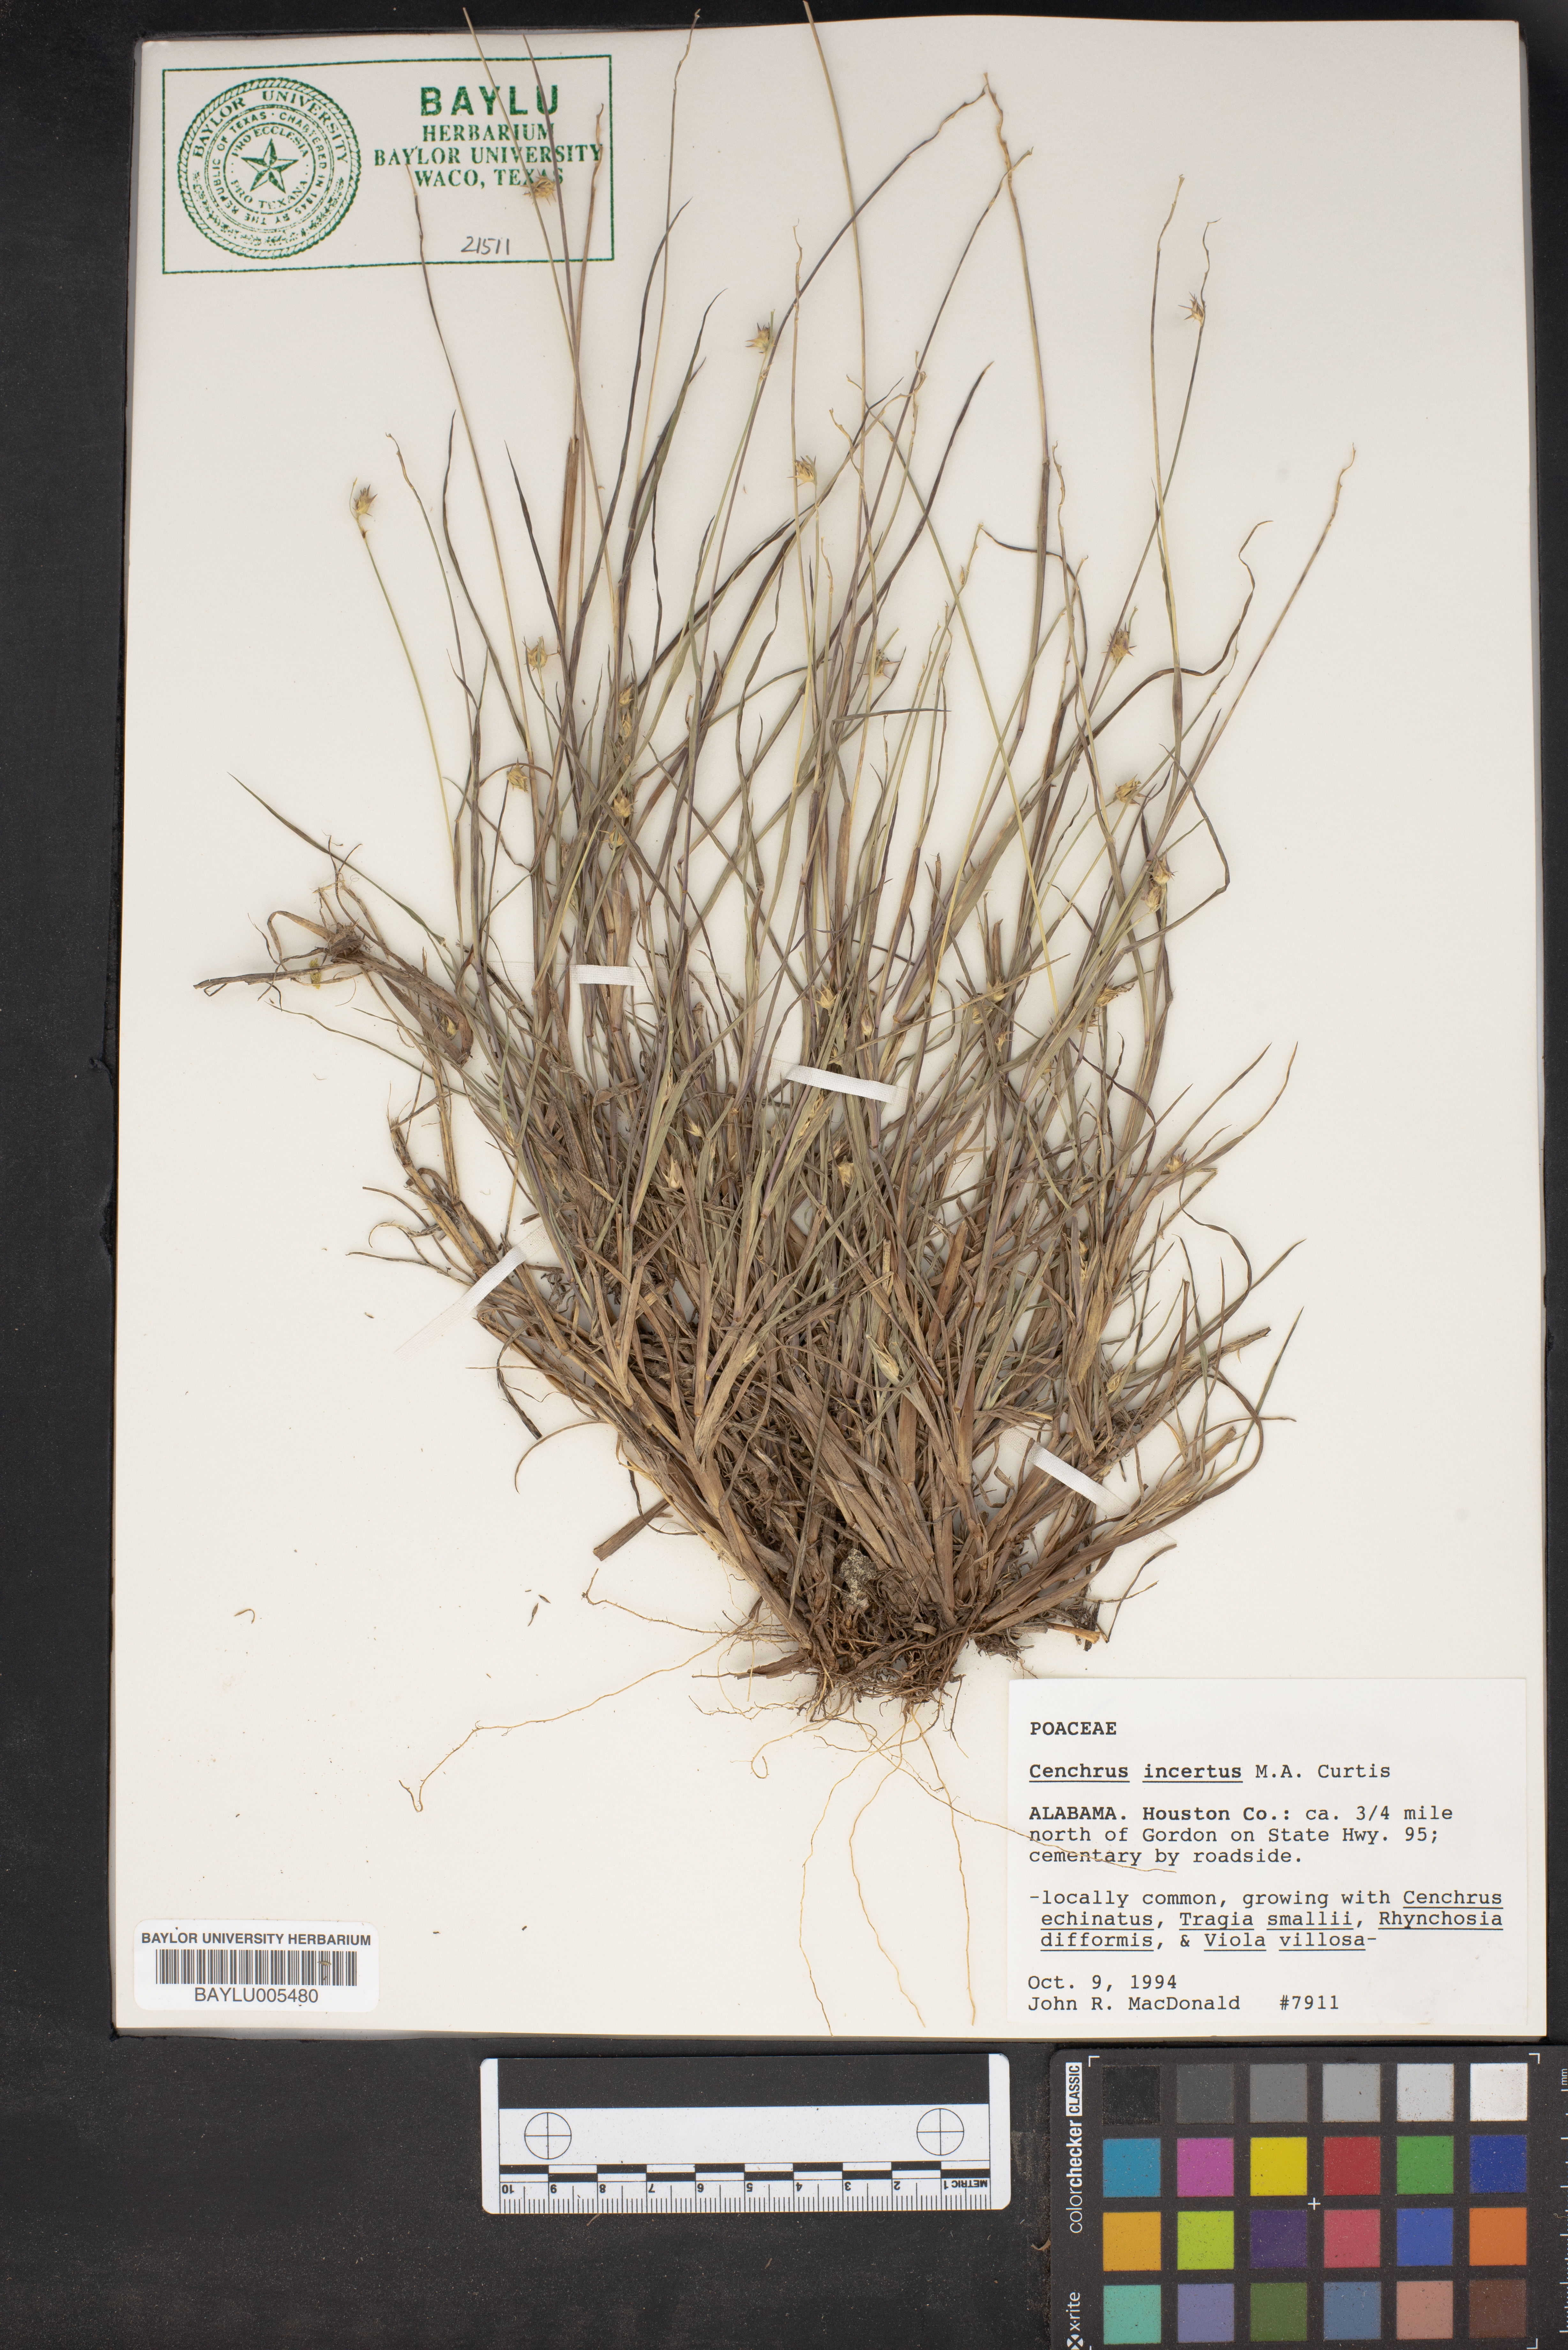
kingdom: Plantae
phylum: Tracheophyta
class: Liliopsida
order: Poales
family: Poaceae
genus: Cenchrus
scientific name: Cenchrus spinifex
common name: Coast sandbur
